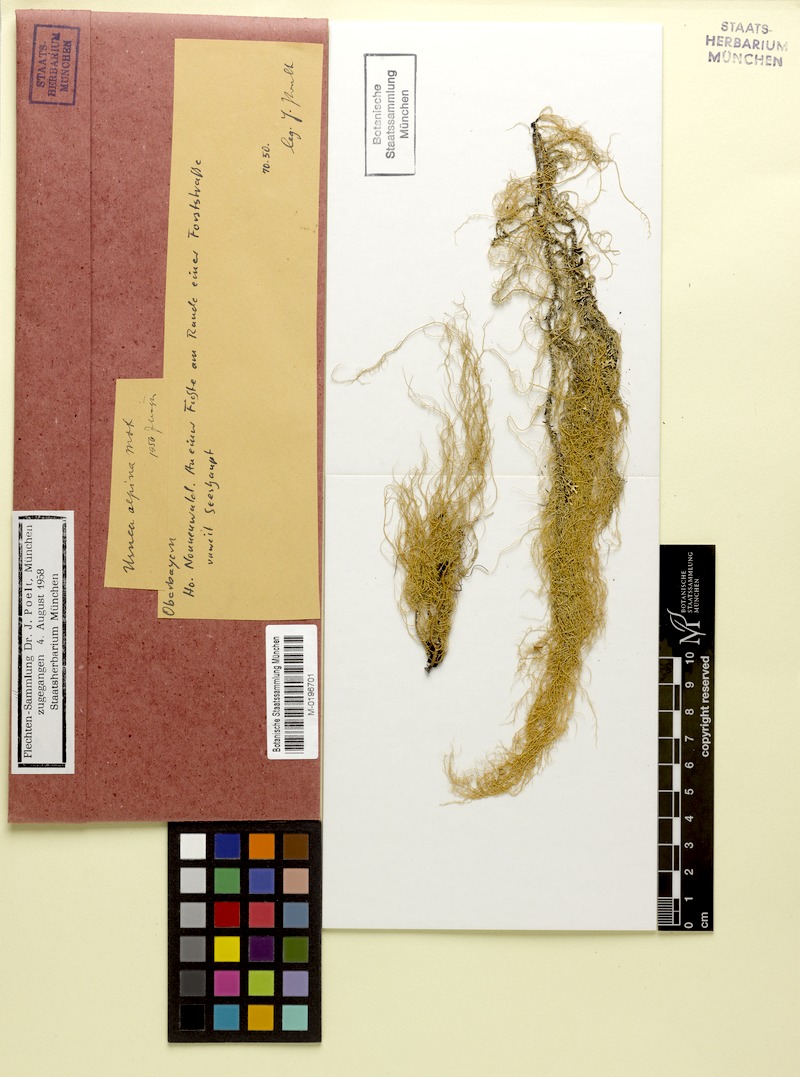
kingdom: Fungi
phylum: Ascomycota
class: Lecanoromycetes
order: Lecanorales
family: Parmeliaceae
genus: Usnea
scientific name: Usnea scabrata
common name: Straw beard lichen
